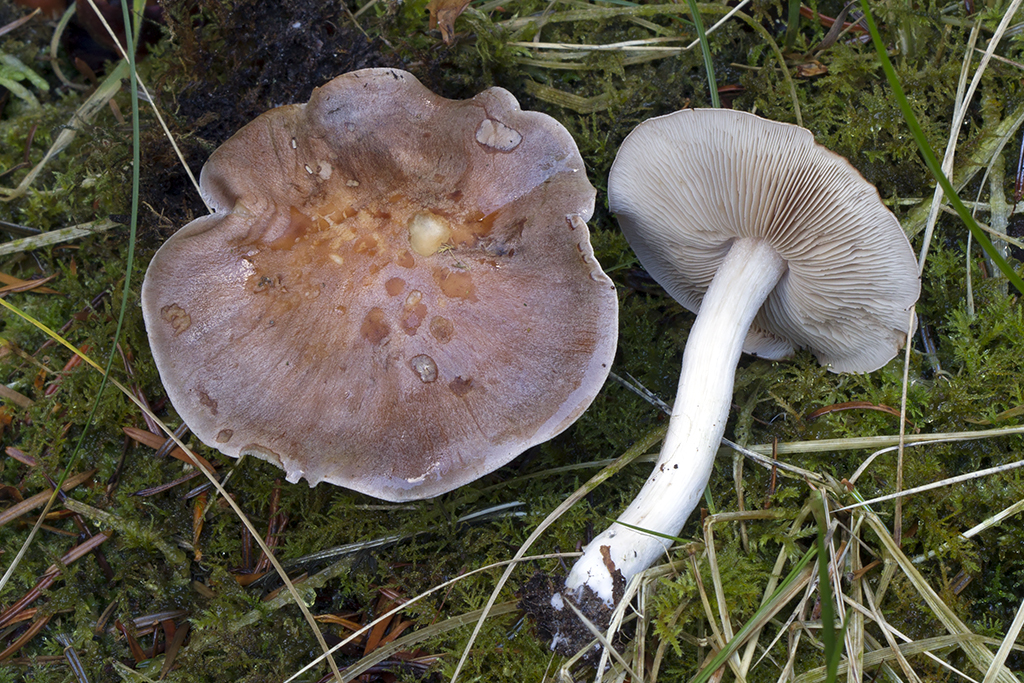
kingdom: Fungi
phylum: Basidiomycota
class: Agaricomycetes
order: Agaricales
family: Hymenogastraceae
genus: Hebeloma
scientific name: Hebeloma theobrominum
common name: rødbrun tåreblad
